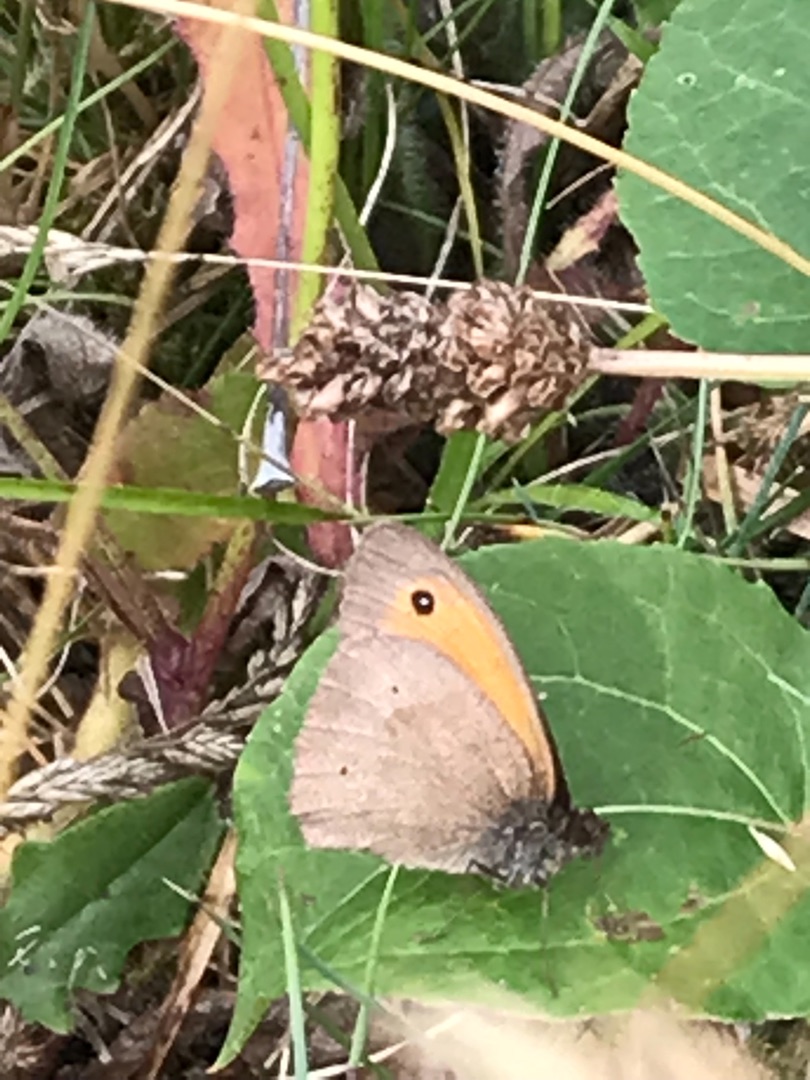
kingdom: Animalia
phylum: Arthropoda
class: Insecta
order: Lepidoptera
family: Nymphalidae
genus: Maniola
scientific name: Maniola jurtina
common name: Græsrandøje
